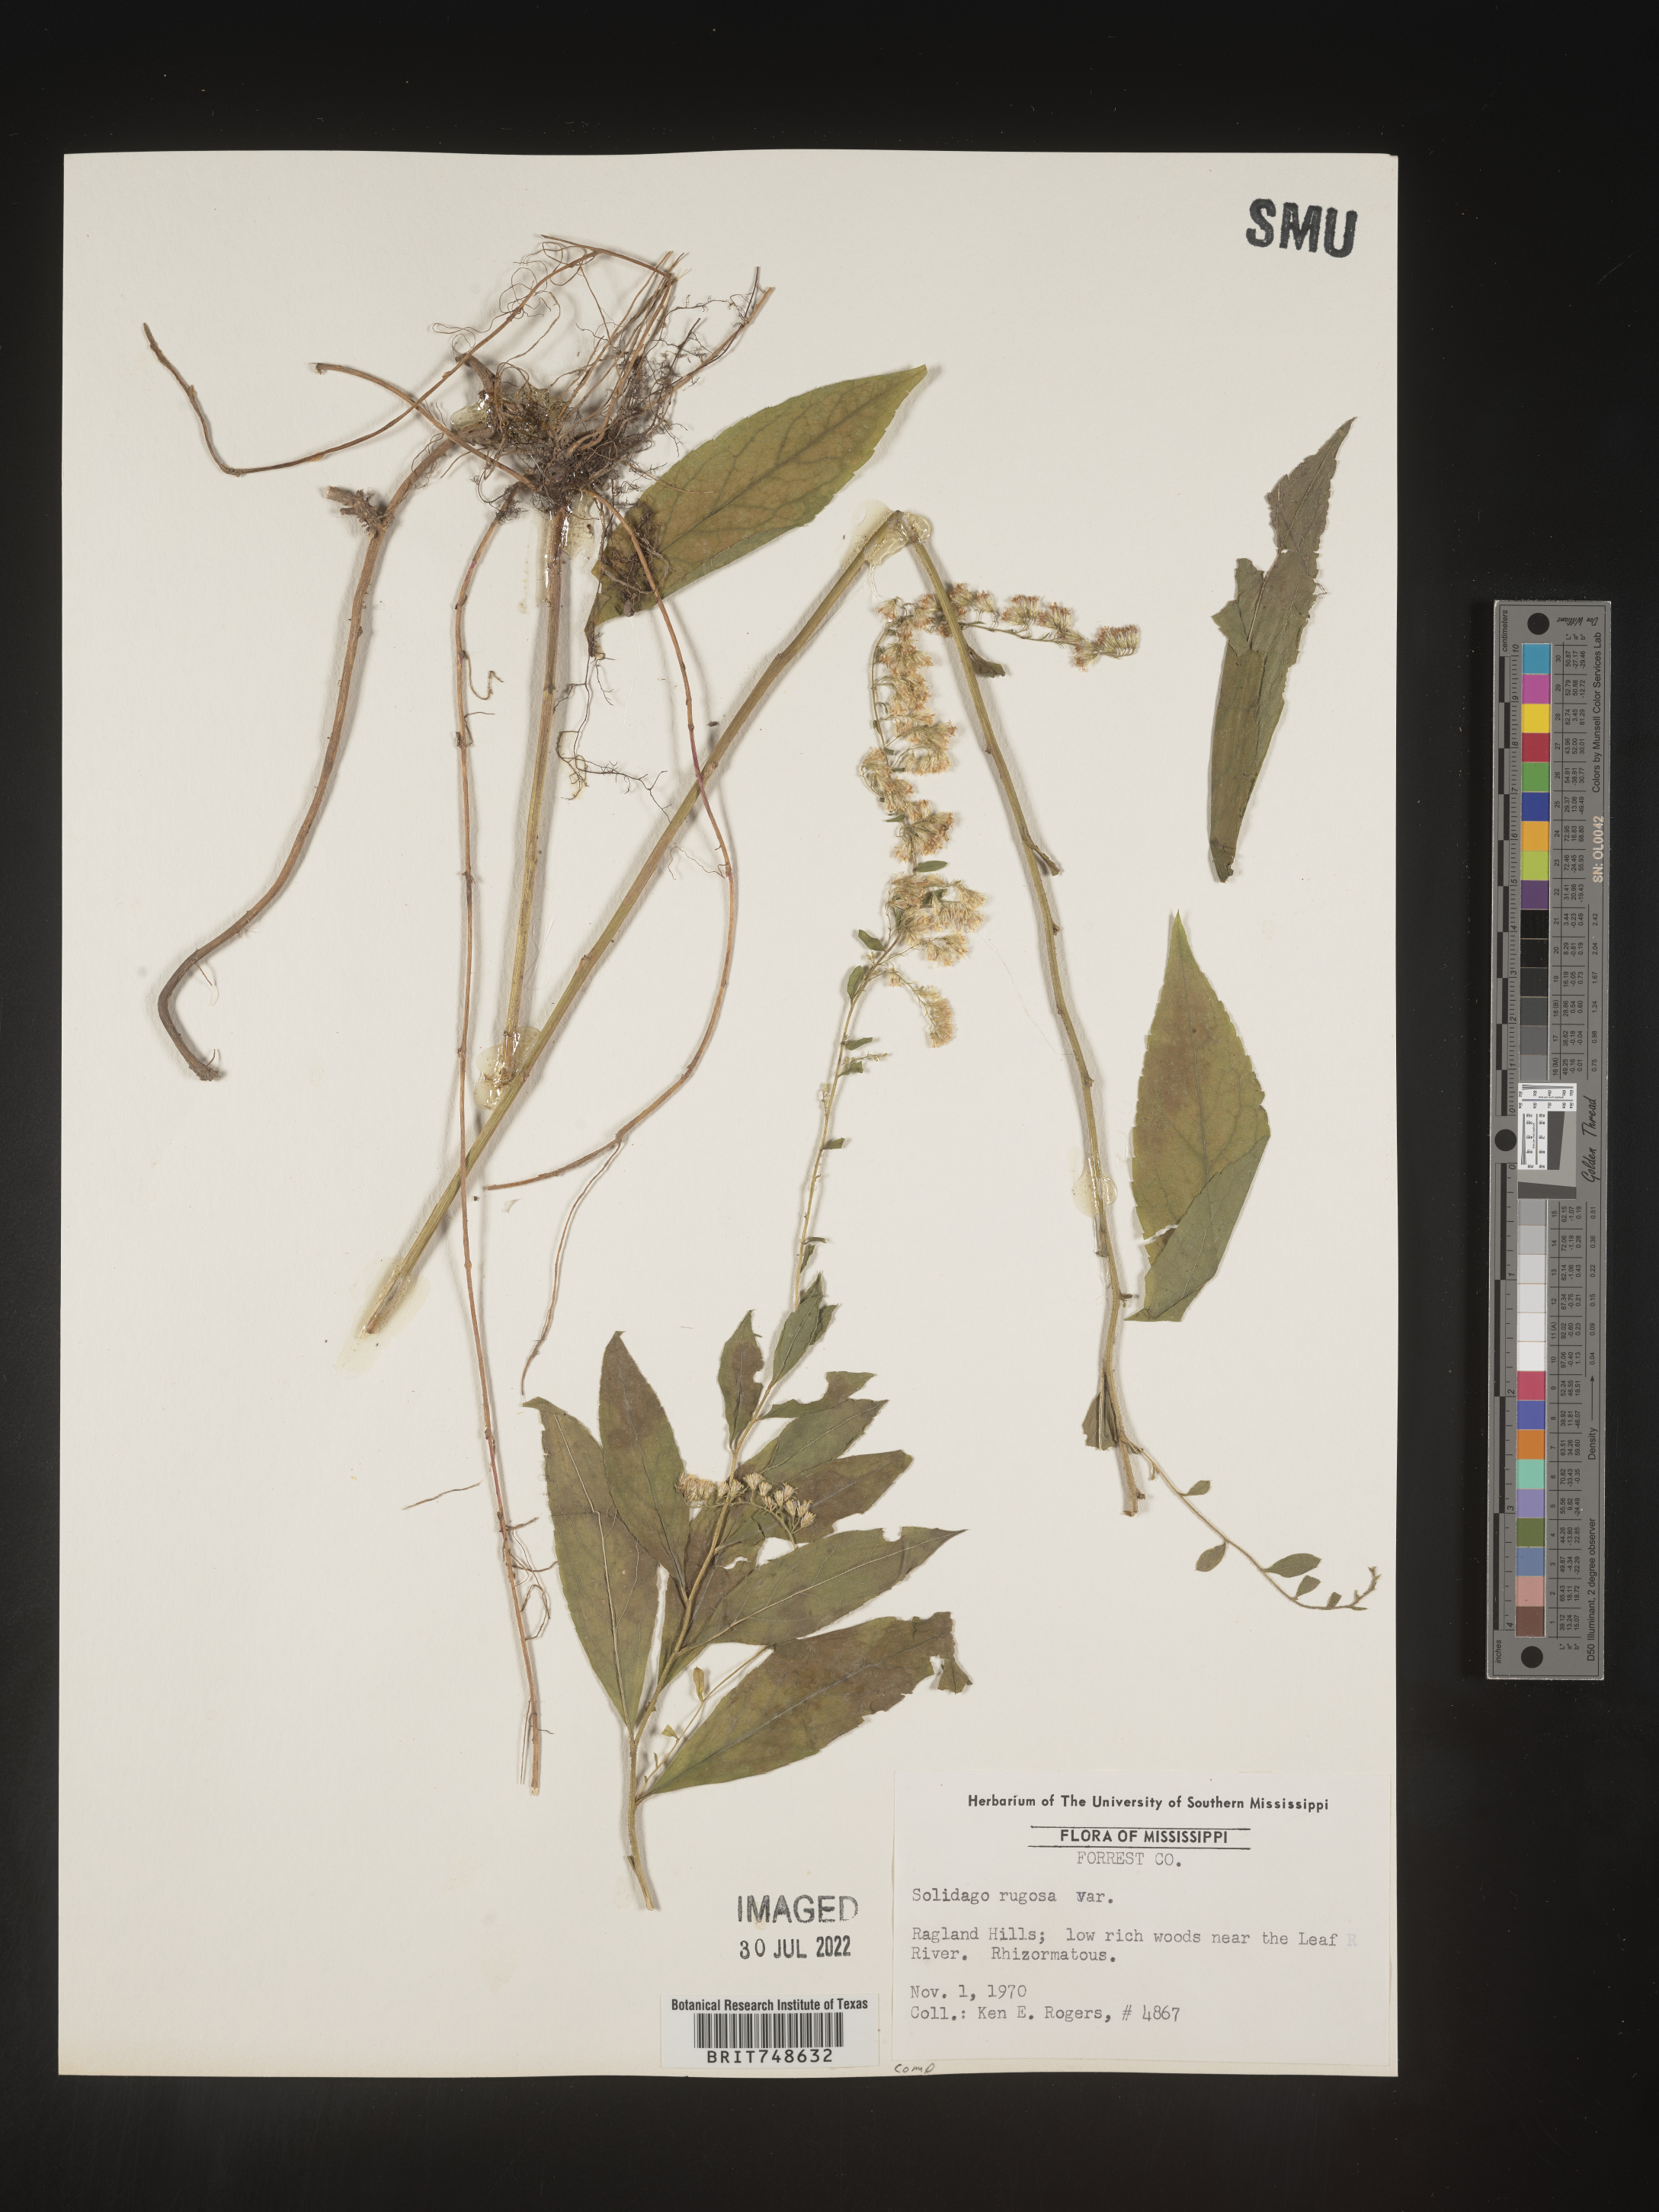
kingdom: Plantae
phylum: Tracheophyta
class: Magnoliopsida
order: Asterales
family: Asteraceae
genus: Solidago
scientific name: Solidago rugosa
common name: Rough-stemmed goldenrod
